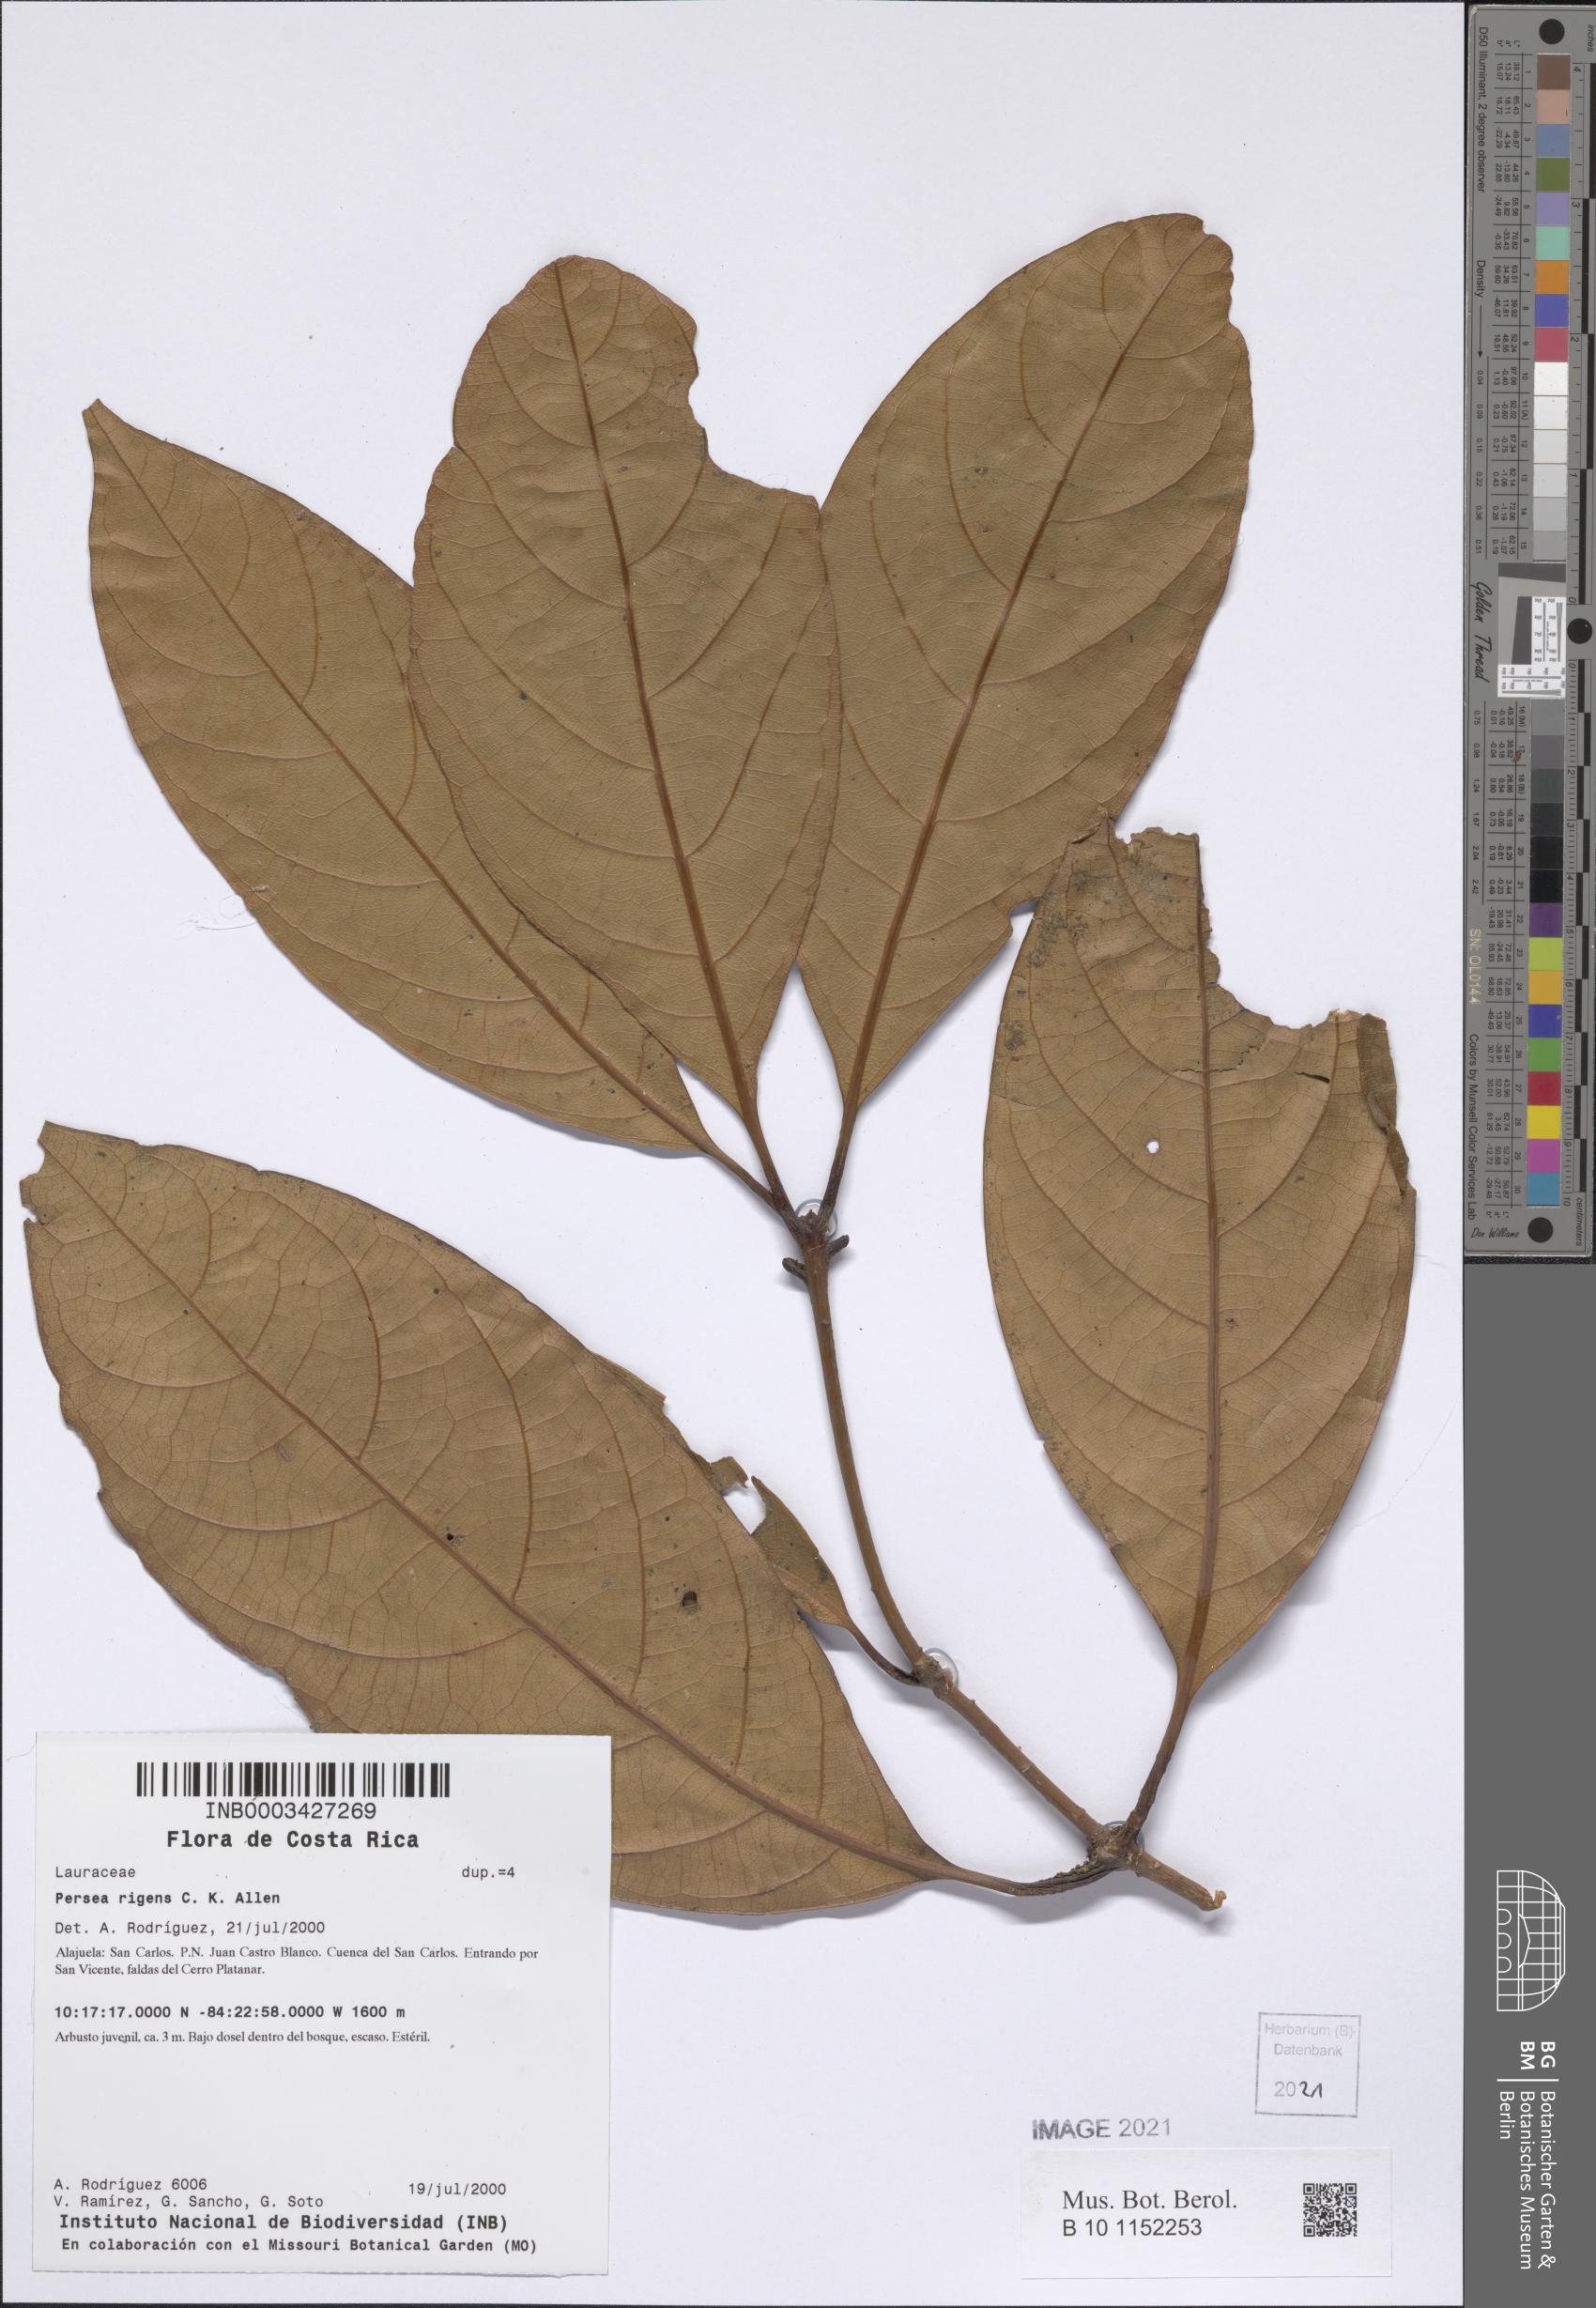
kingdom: Plantae
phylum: Tracheophyta
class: Magnoliopsida
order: Laurales
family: Lauraceae
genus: Persea
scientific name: Persea rigens
